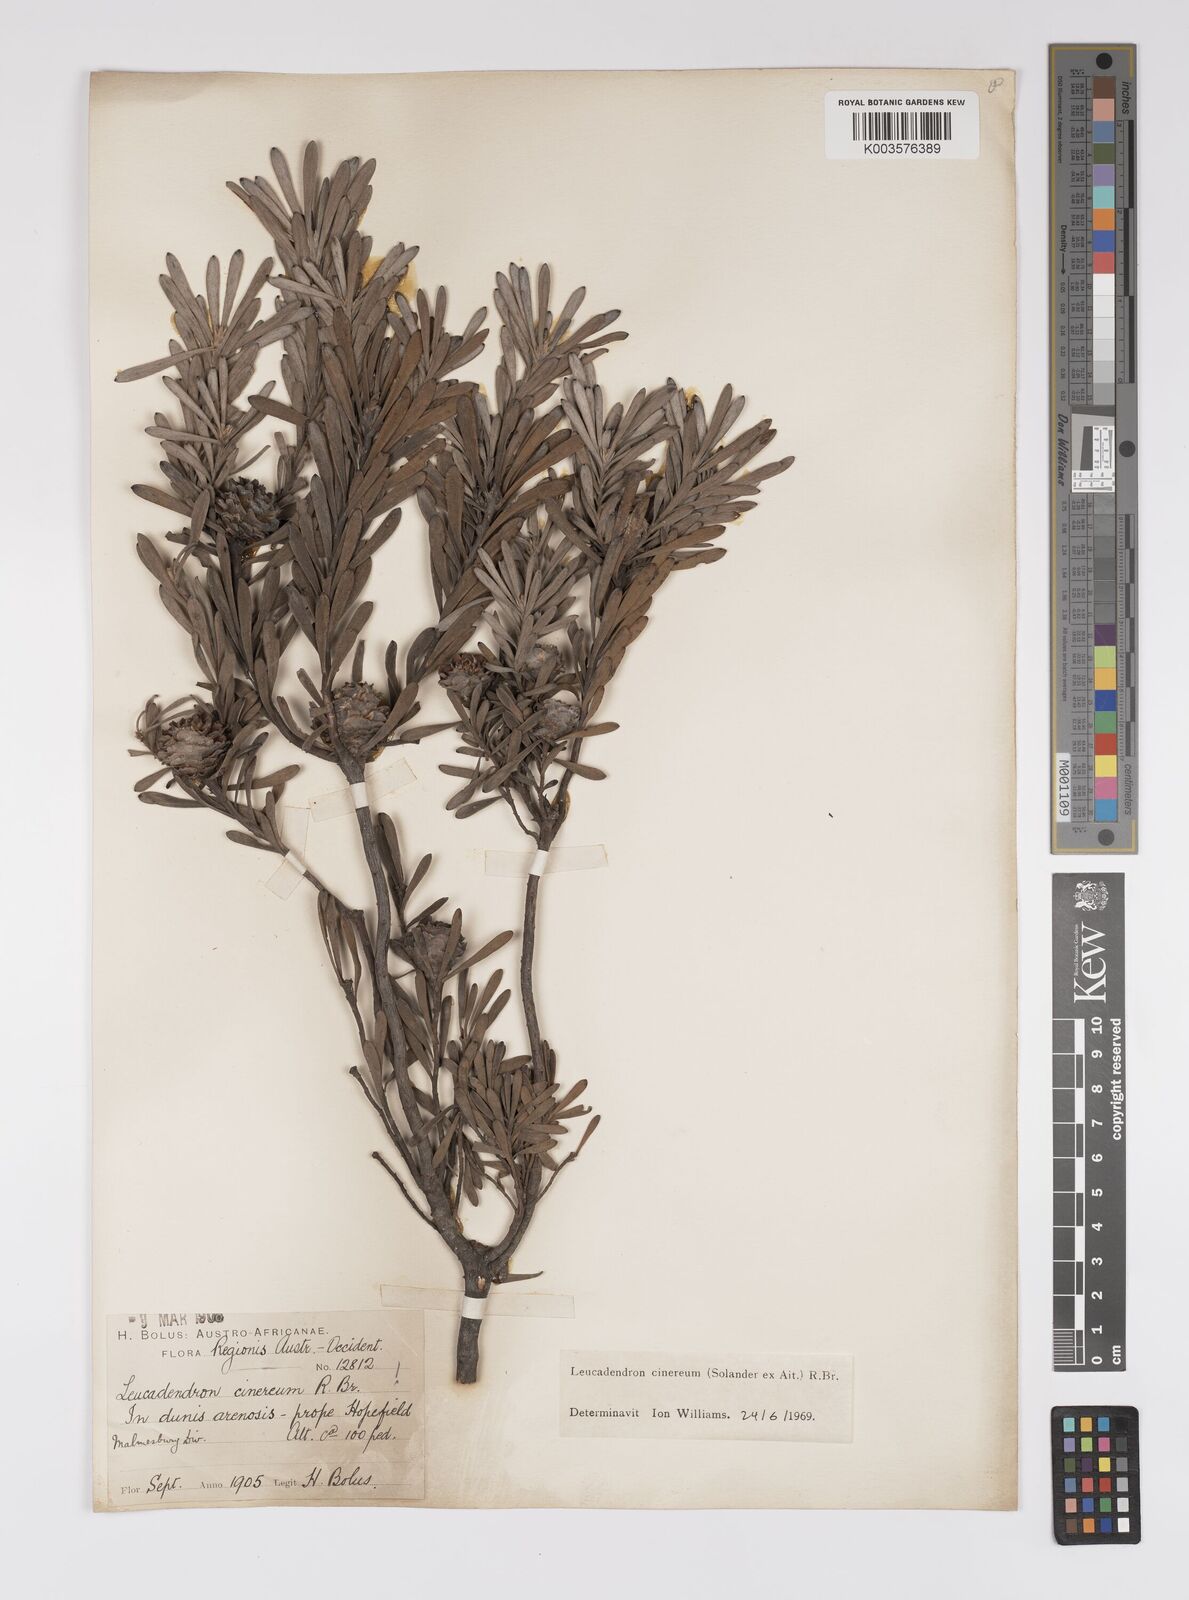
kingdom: Plantae
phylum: Tracheophyta
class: Magnoliopsida
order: Proteales
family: Proteaceae
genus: Leucadendron
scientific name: Leucadendron cinereum
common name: Scraggly conebush
